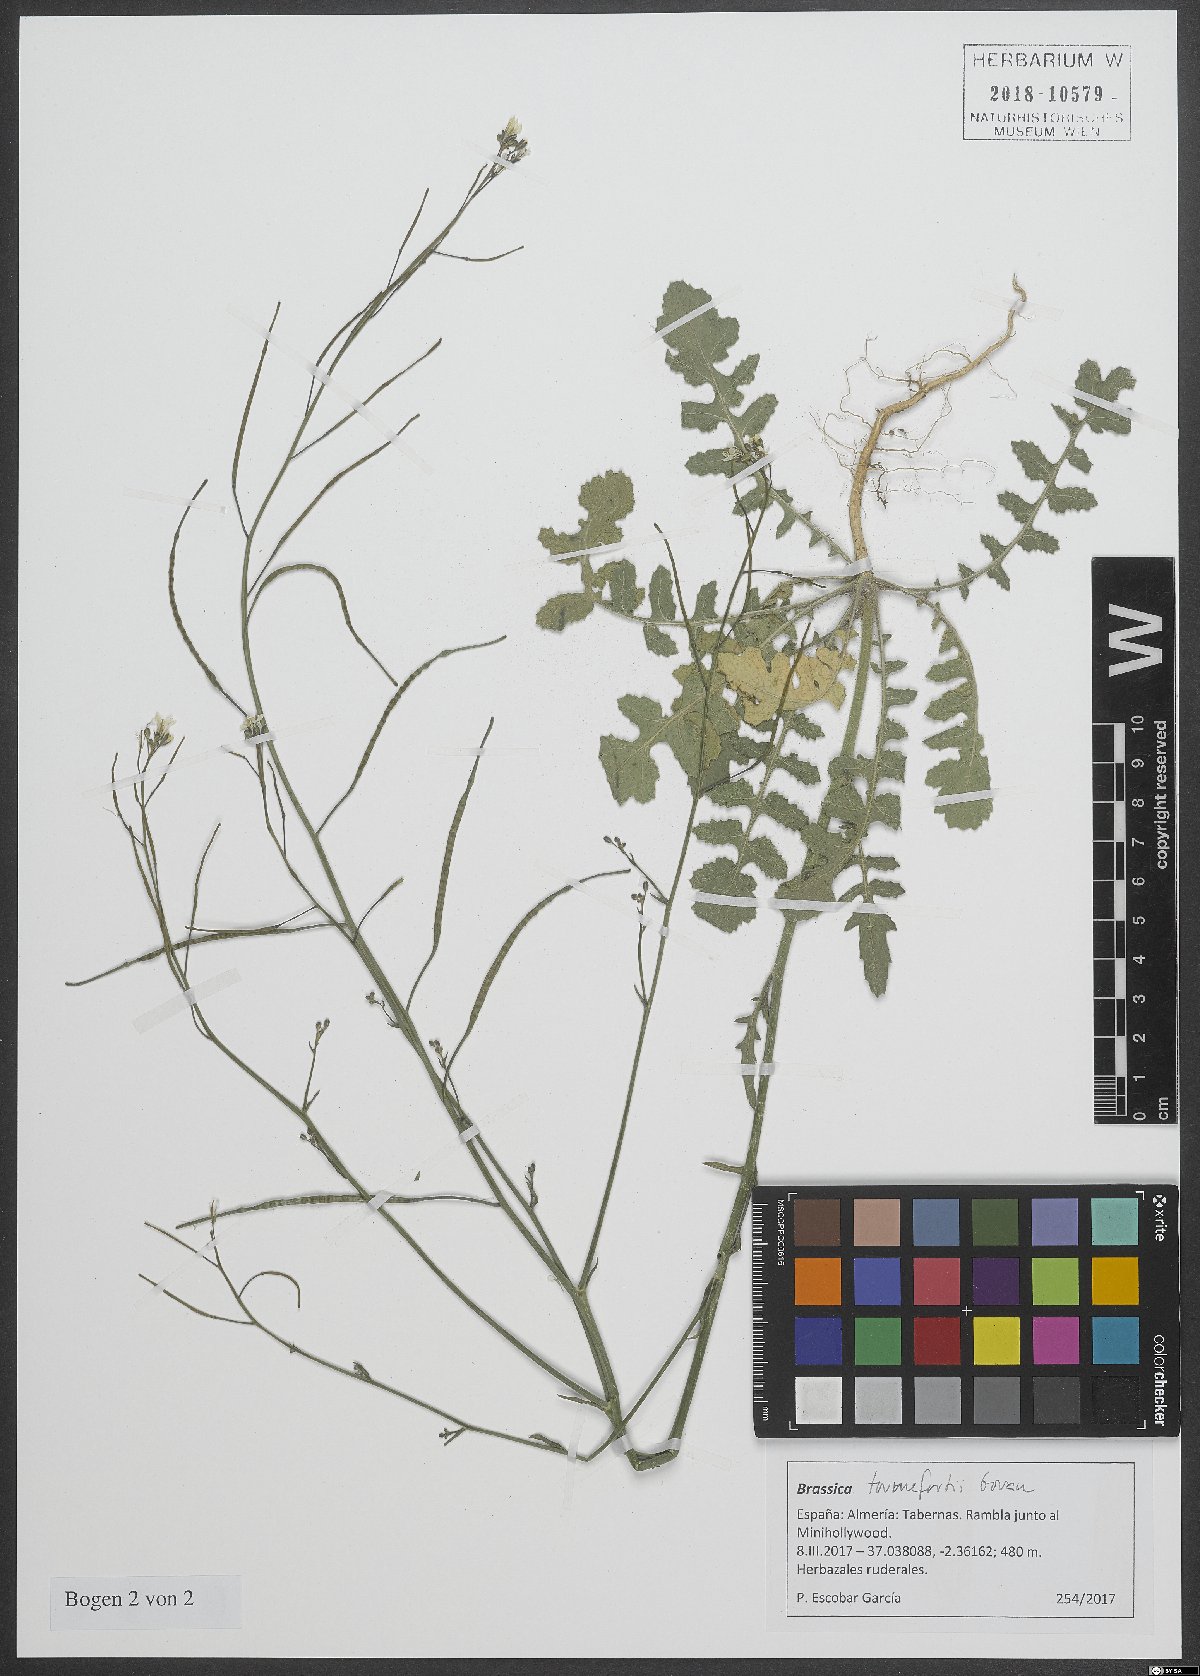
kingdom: Plantae
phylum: Tracheophyta
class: Magnoliopsida
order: Brassicales
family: Brassicaceae
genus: Brassica
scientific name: Brassica tournefortii
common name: Pale cabbage
